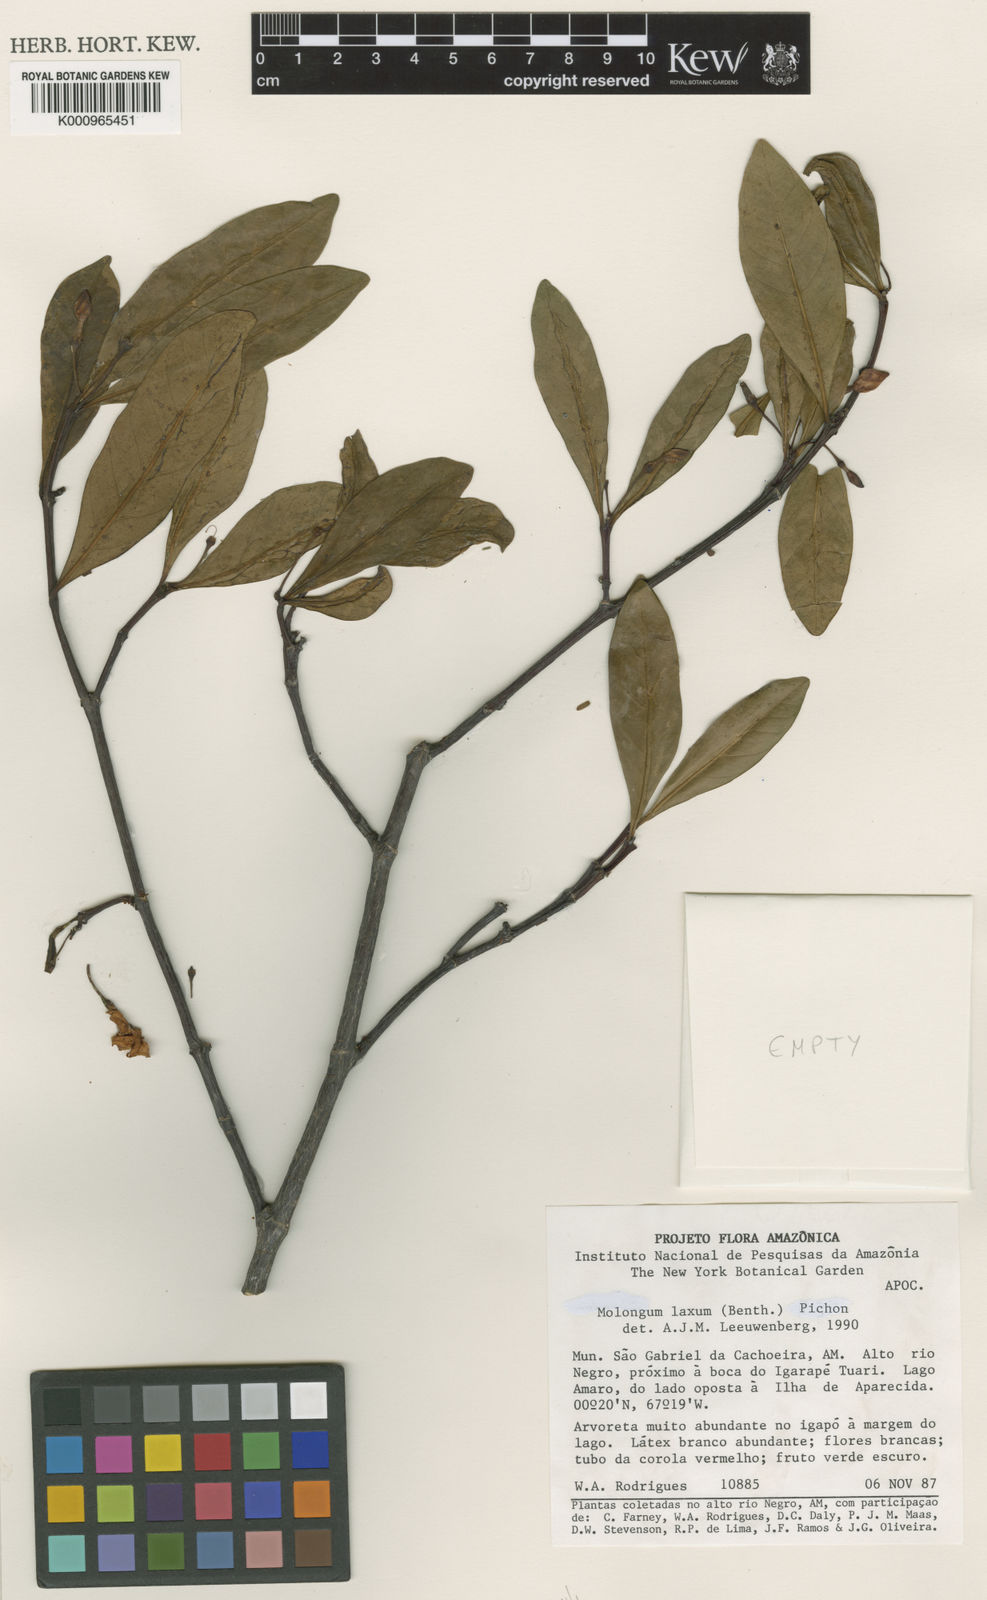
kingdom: Plantae
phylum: Tracheophyta
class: Magnoliopsida
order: Gentianales
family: Apocynaceae
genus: Molongum
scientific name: Molongum laxum
